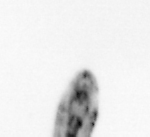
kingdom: Animalia
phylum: Annelida
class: Polychaeta
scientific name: Polychaeta
